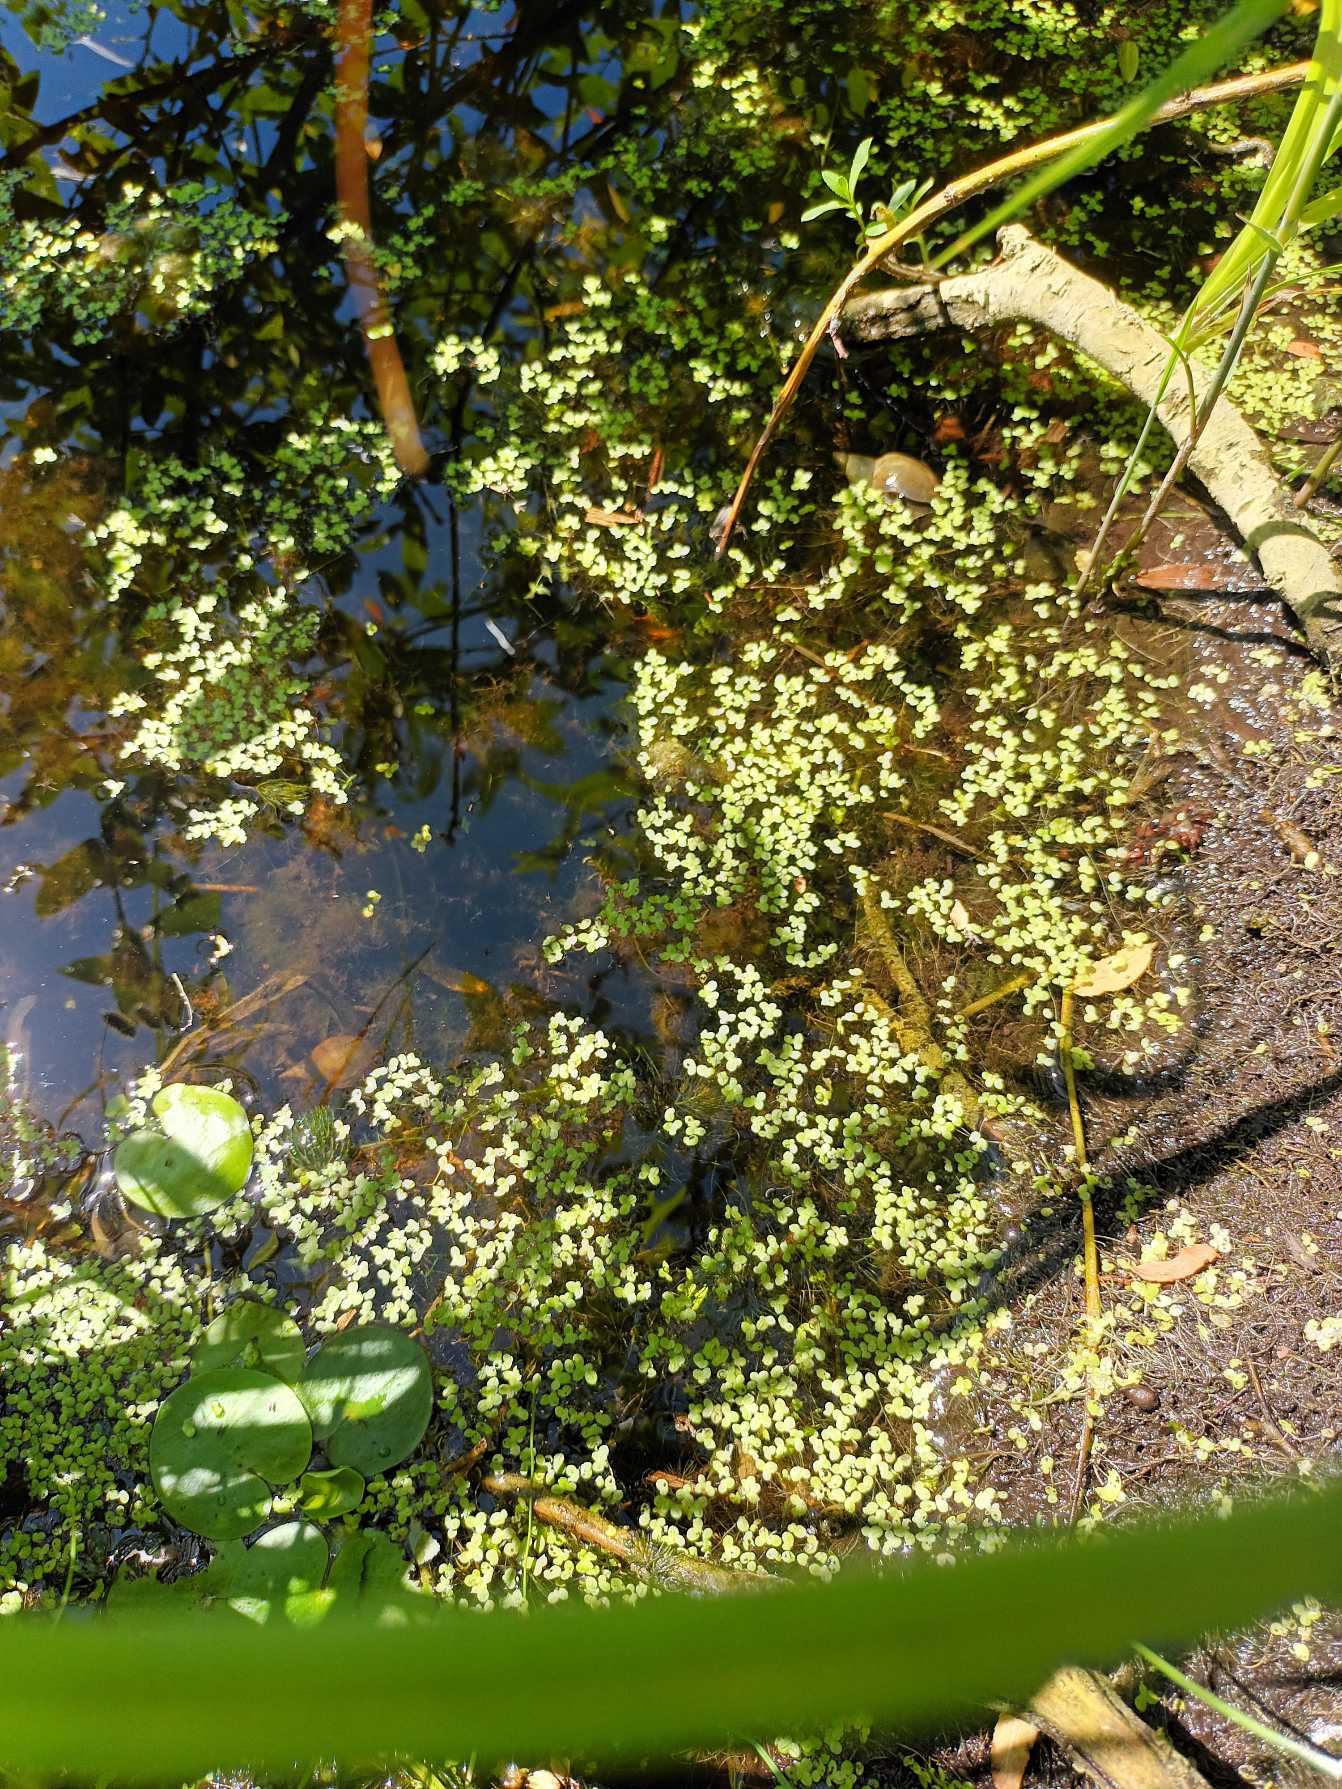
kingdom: Plantae
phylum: Tracheophyta
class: Liliopsida
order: Alismatales
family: Araceae
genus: Lemna
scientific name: Lemna minor
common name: Liden andemad
